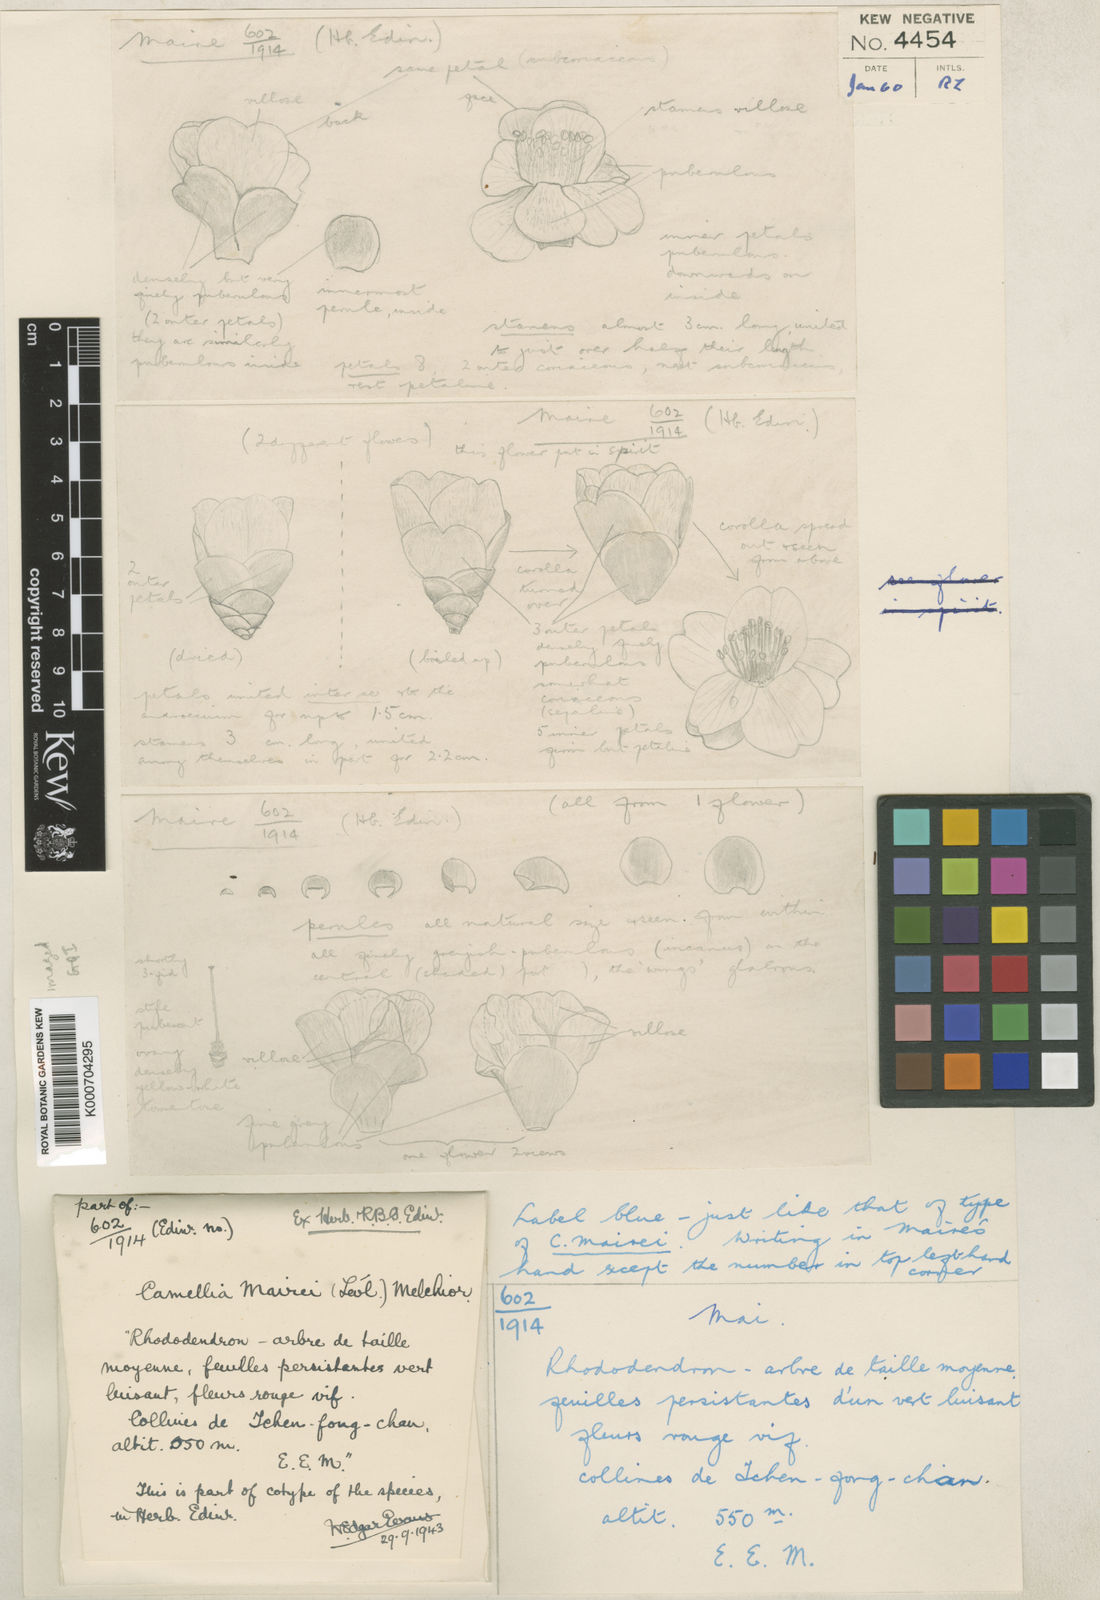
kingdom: Plantae
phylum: Tracheophyta
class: Magnoliopsida
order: Ericales
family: Theaceae
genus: Camellia
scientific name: Camellia
